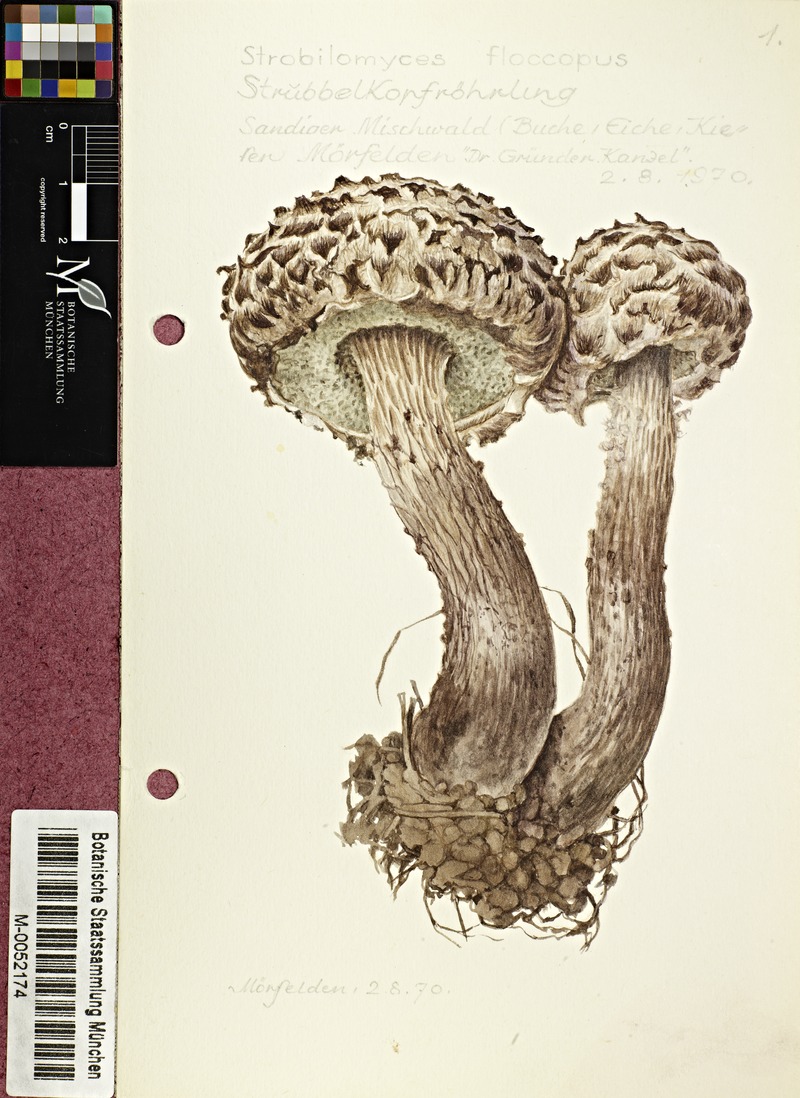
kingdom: Fungi
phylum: Basidiomycota
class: Agaricomycetes
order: Boletales
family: Boletaceae
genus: Strobilomyces
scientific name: Strobilomyces strobilaceus
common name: Old man of the woods
